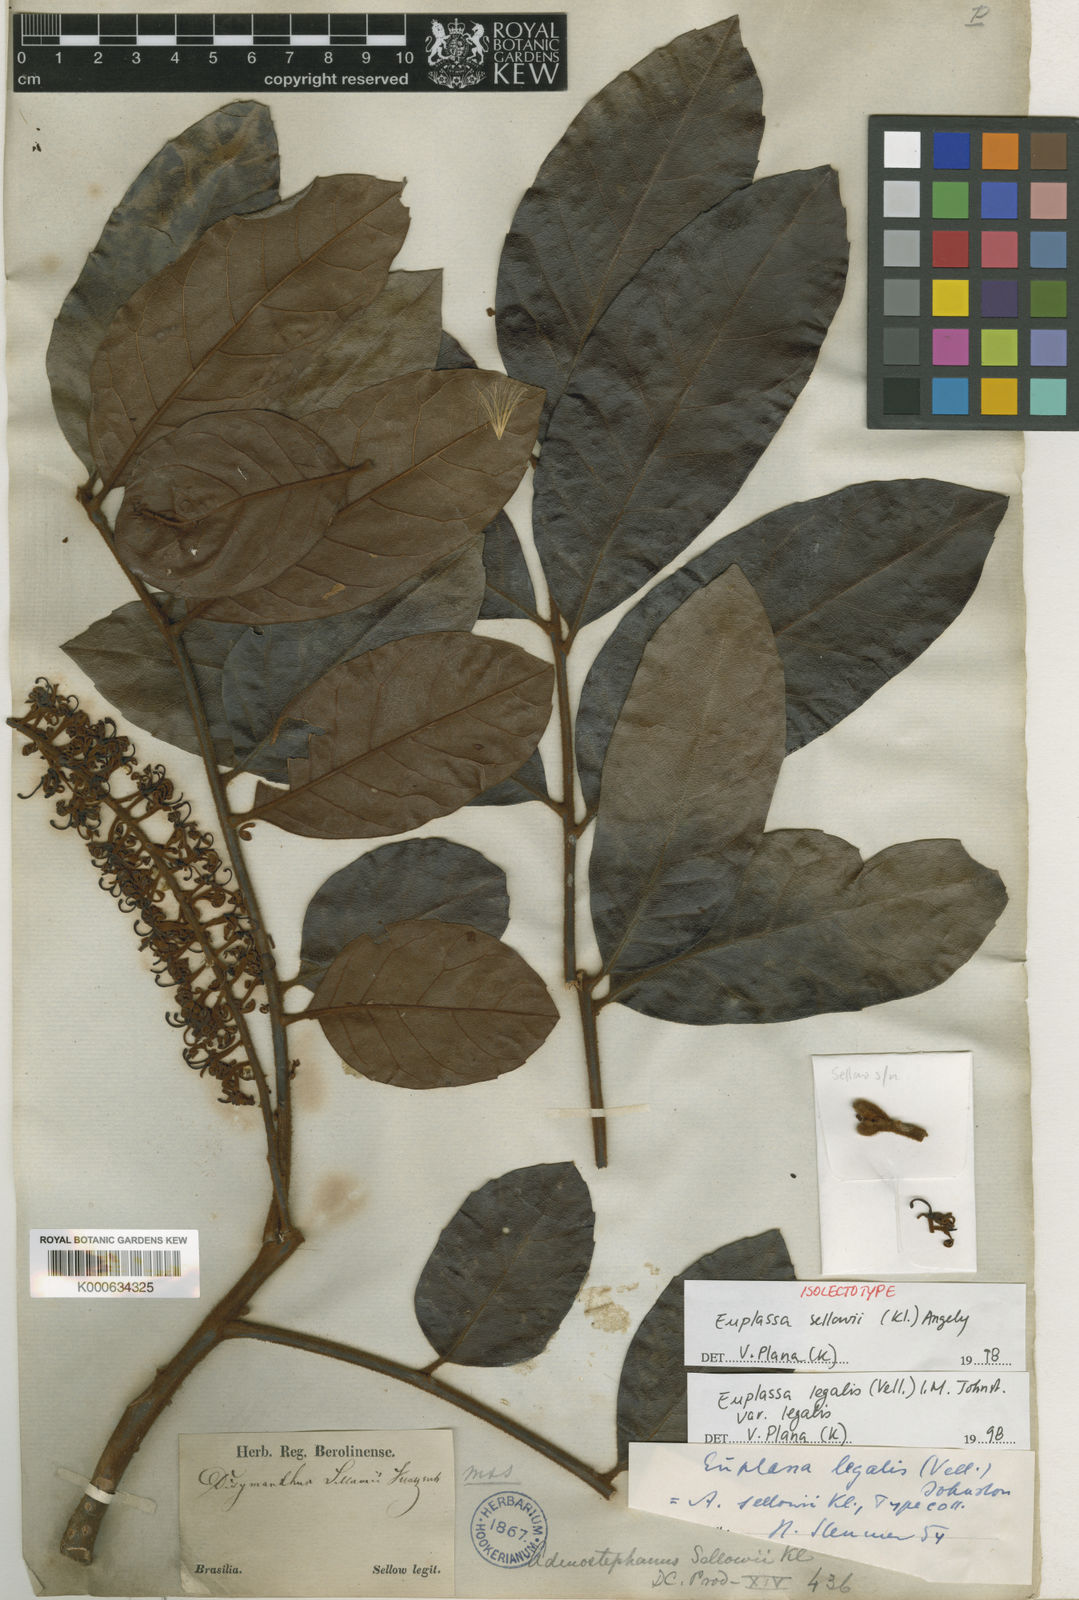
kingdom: Plantae
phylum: Tracheophyta
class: Magnoliopsida
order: Proteales
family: Proteaceae
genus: Euplassa
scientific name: Euplassa legalis
